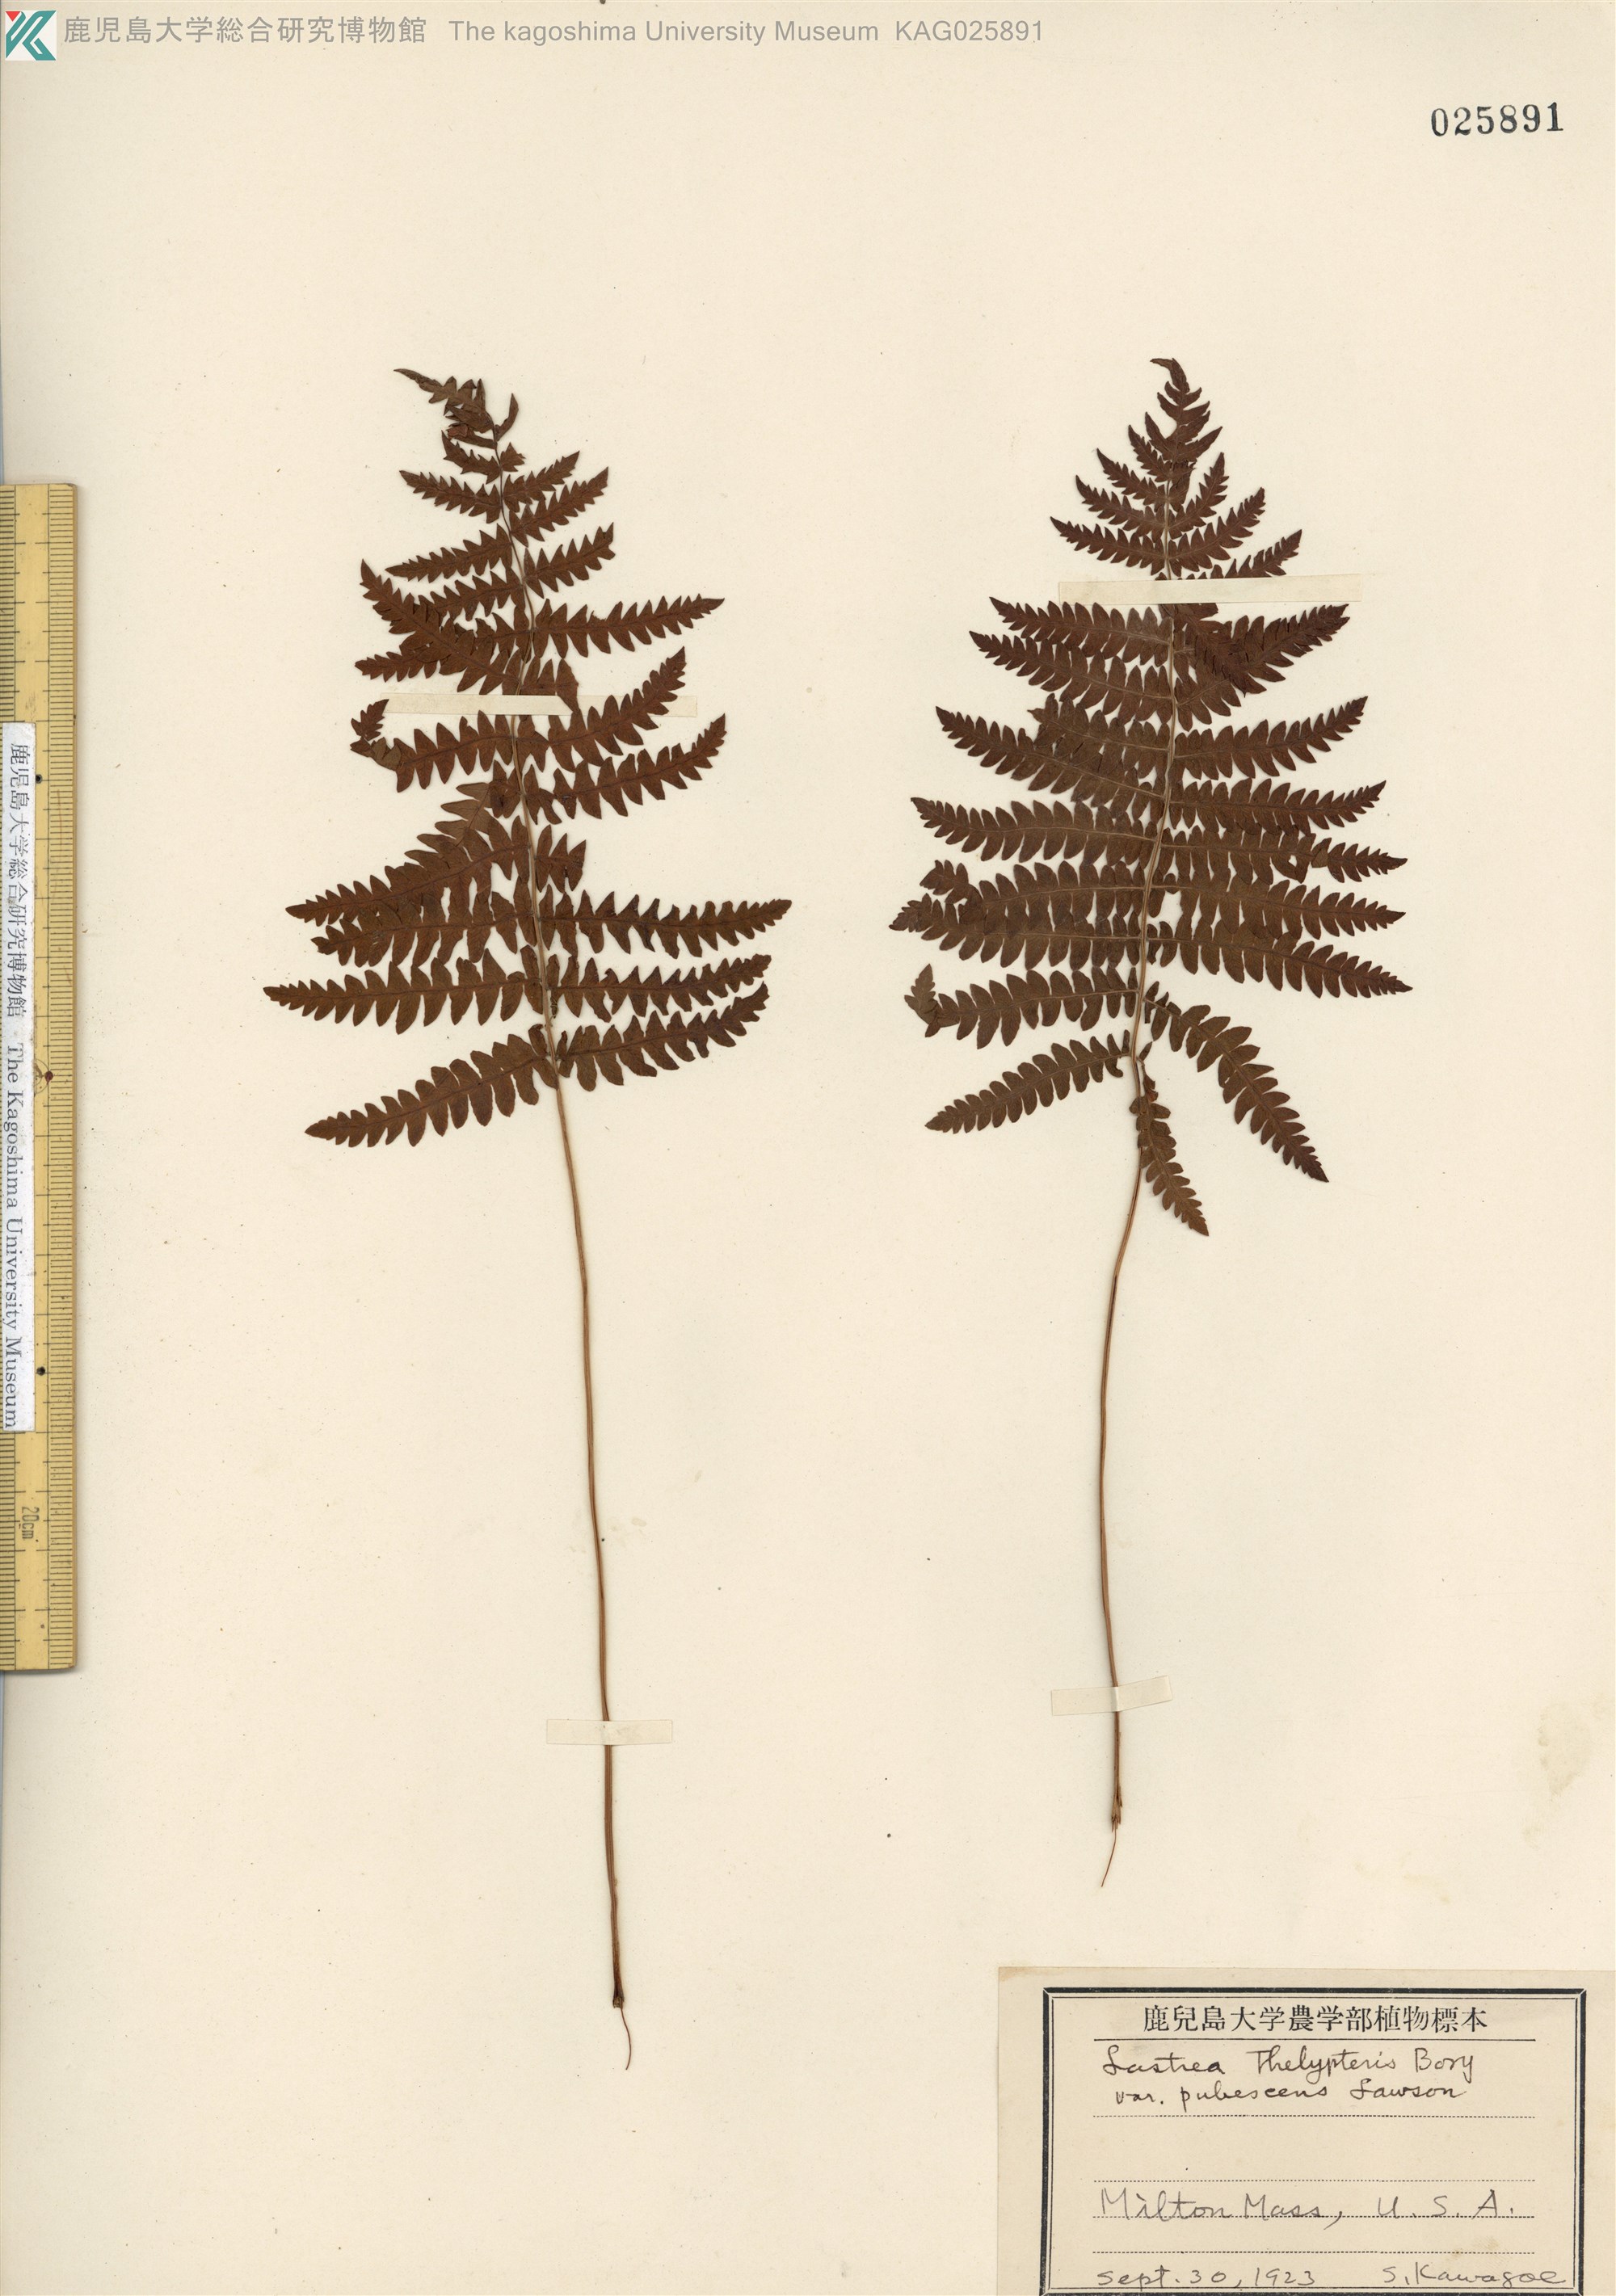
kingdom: Plantae
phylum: Tracheophyta
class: Polypodiopsida
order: Polypodiales
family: Thelypteridaceae
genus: Thelypteris
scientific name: Thelypteris palustris
